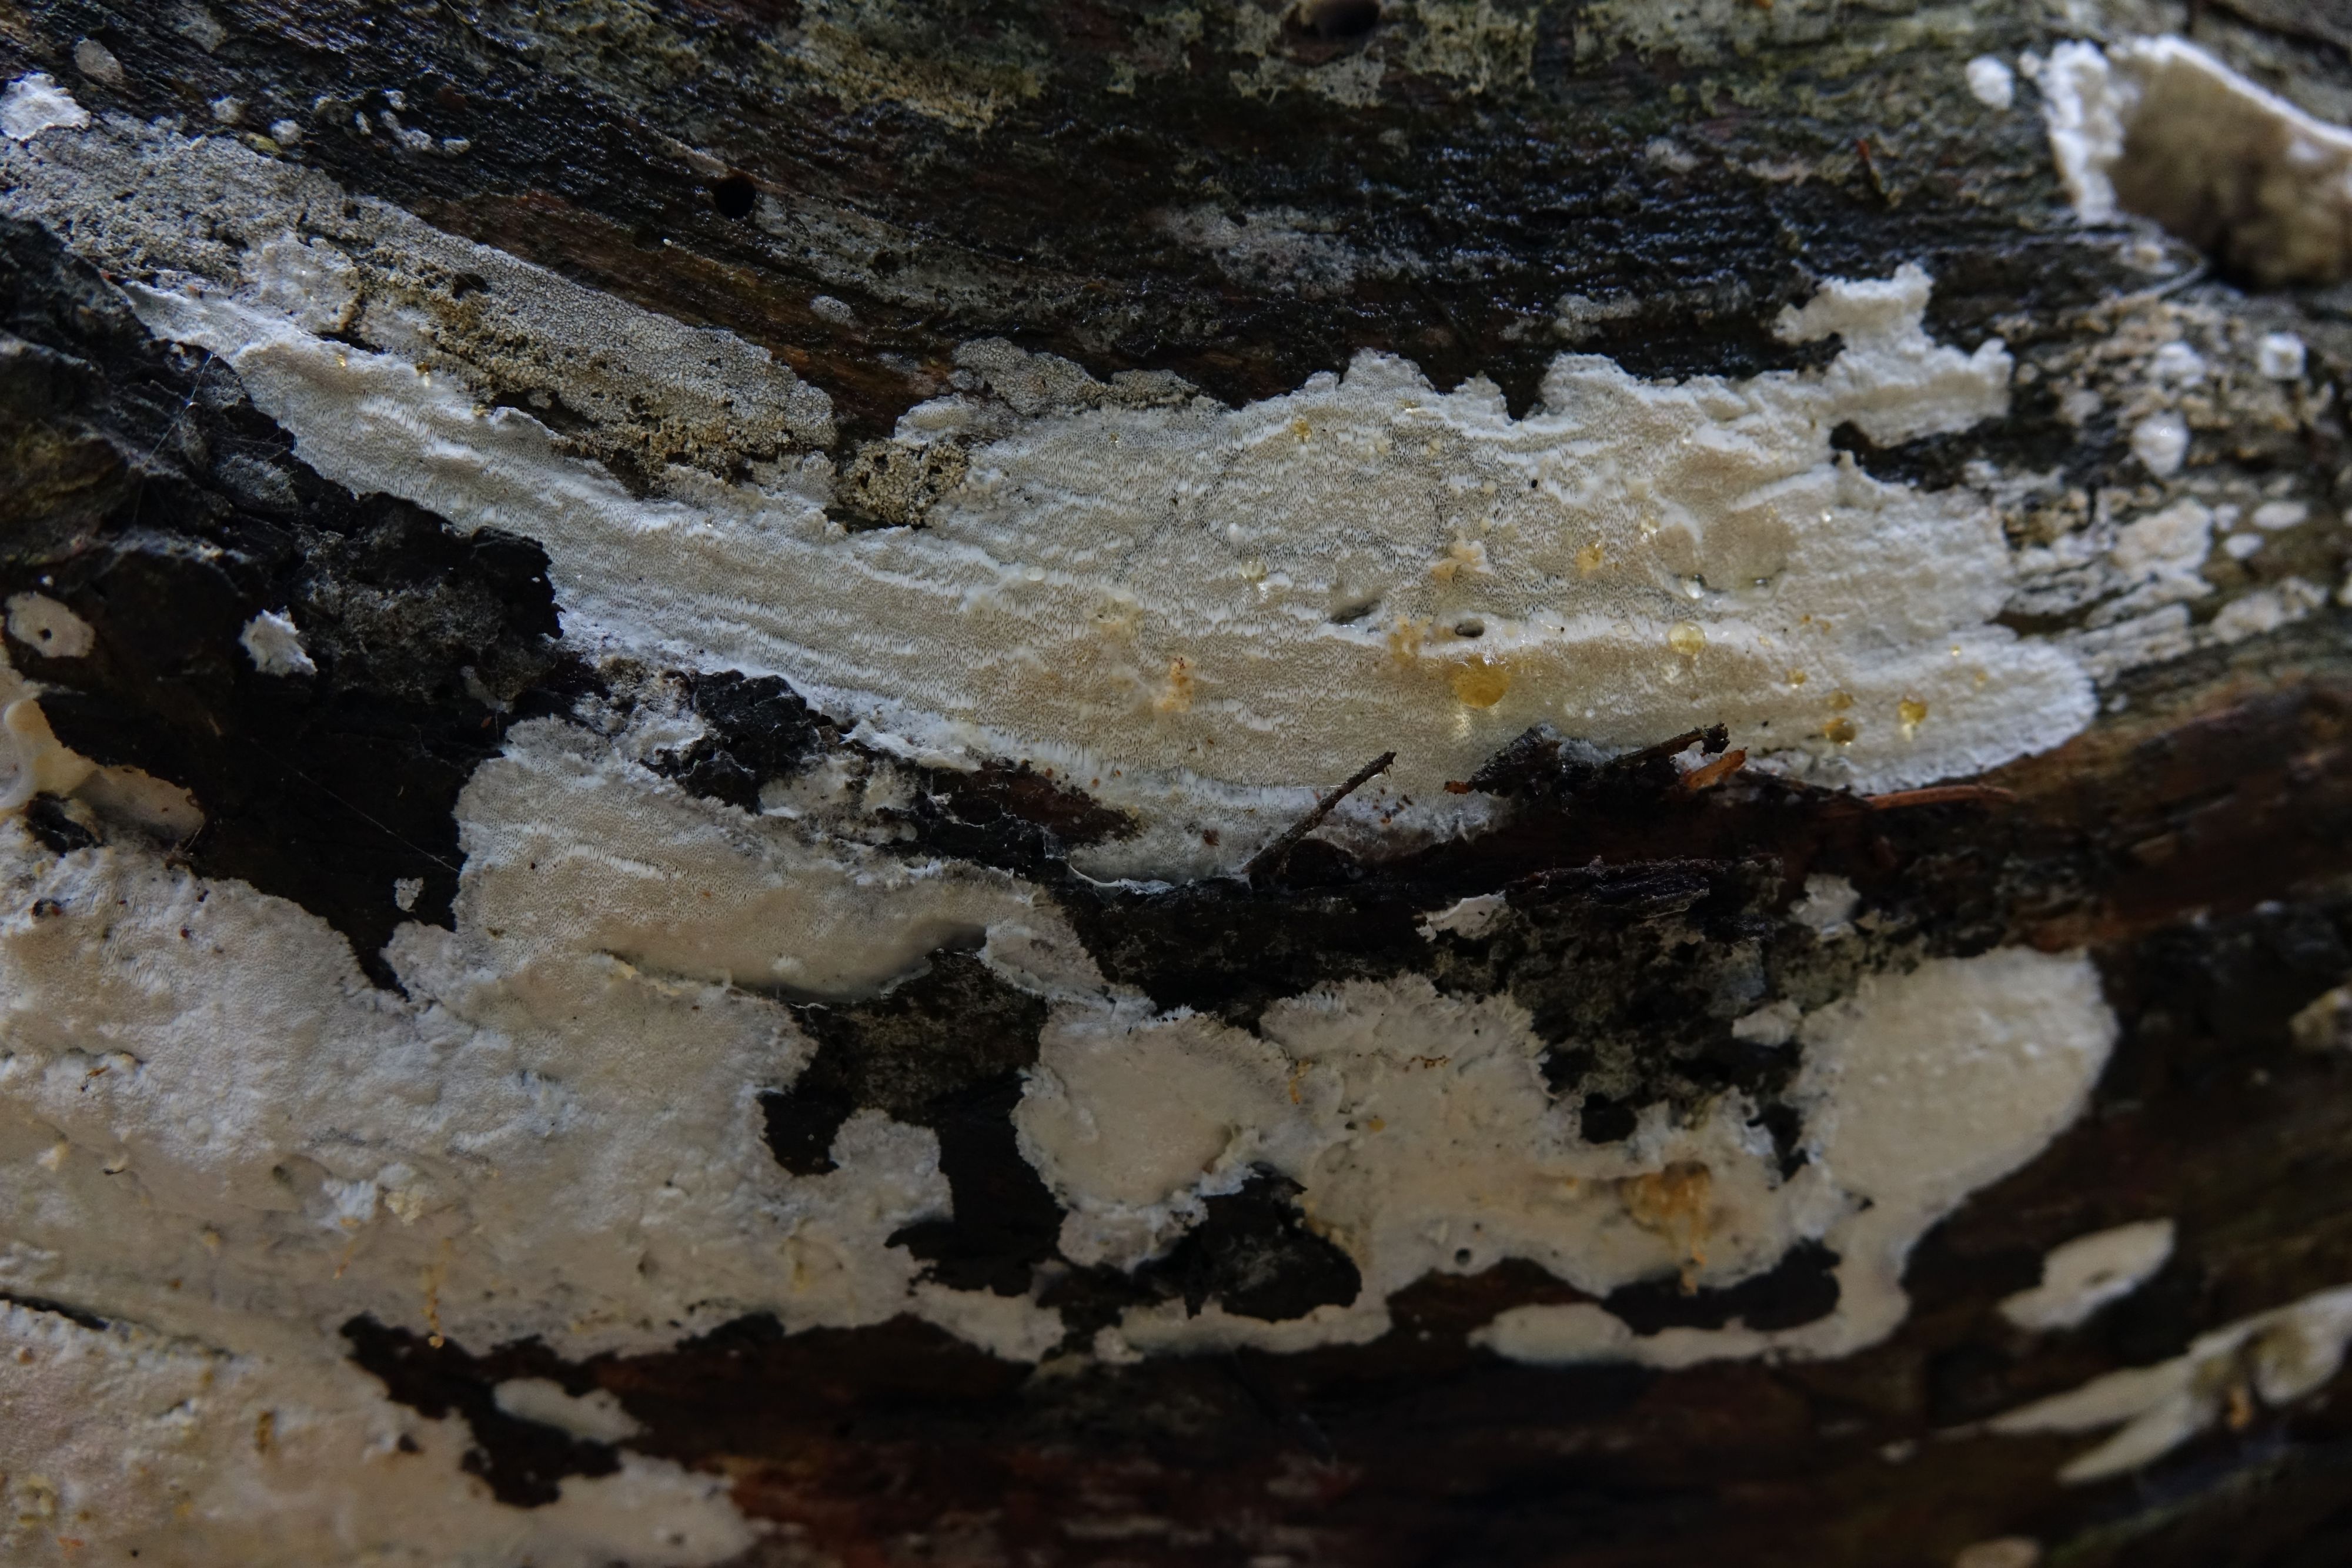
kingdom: Fungi
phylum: Basidiomycota
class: Agaricomycetes
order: Polyporales
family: Incrustoporiaceae
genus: Incrustoporia
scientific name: Incrustoporia biguttulata
